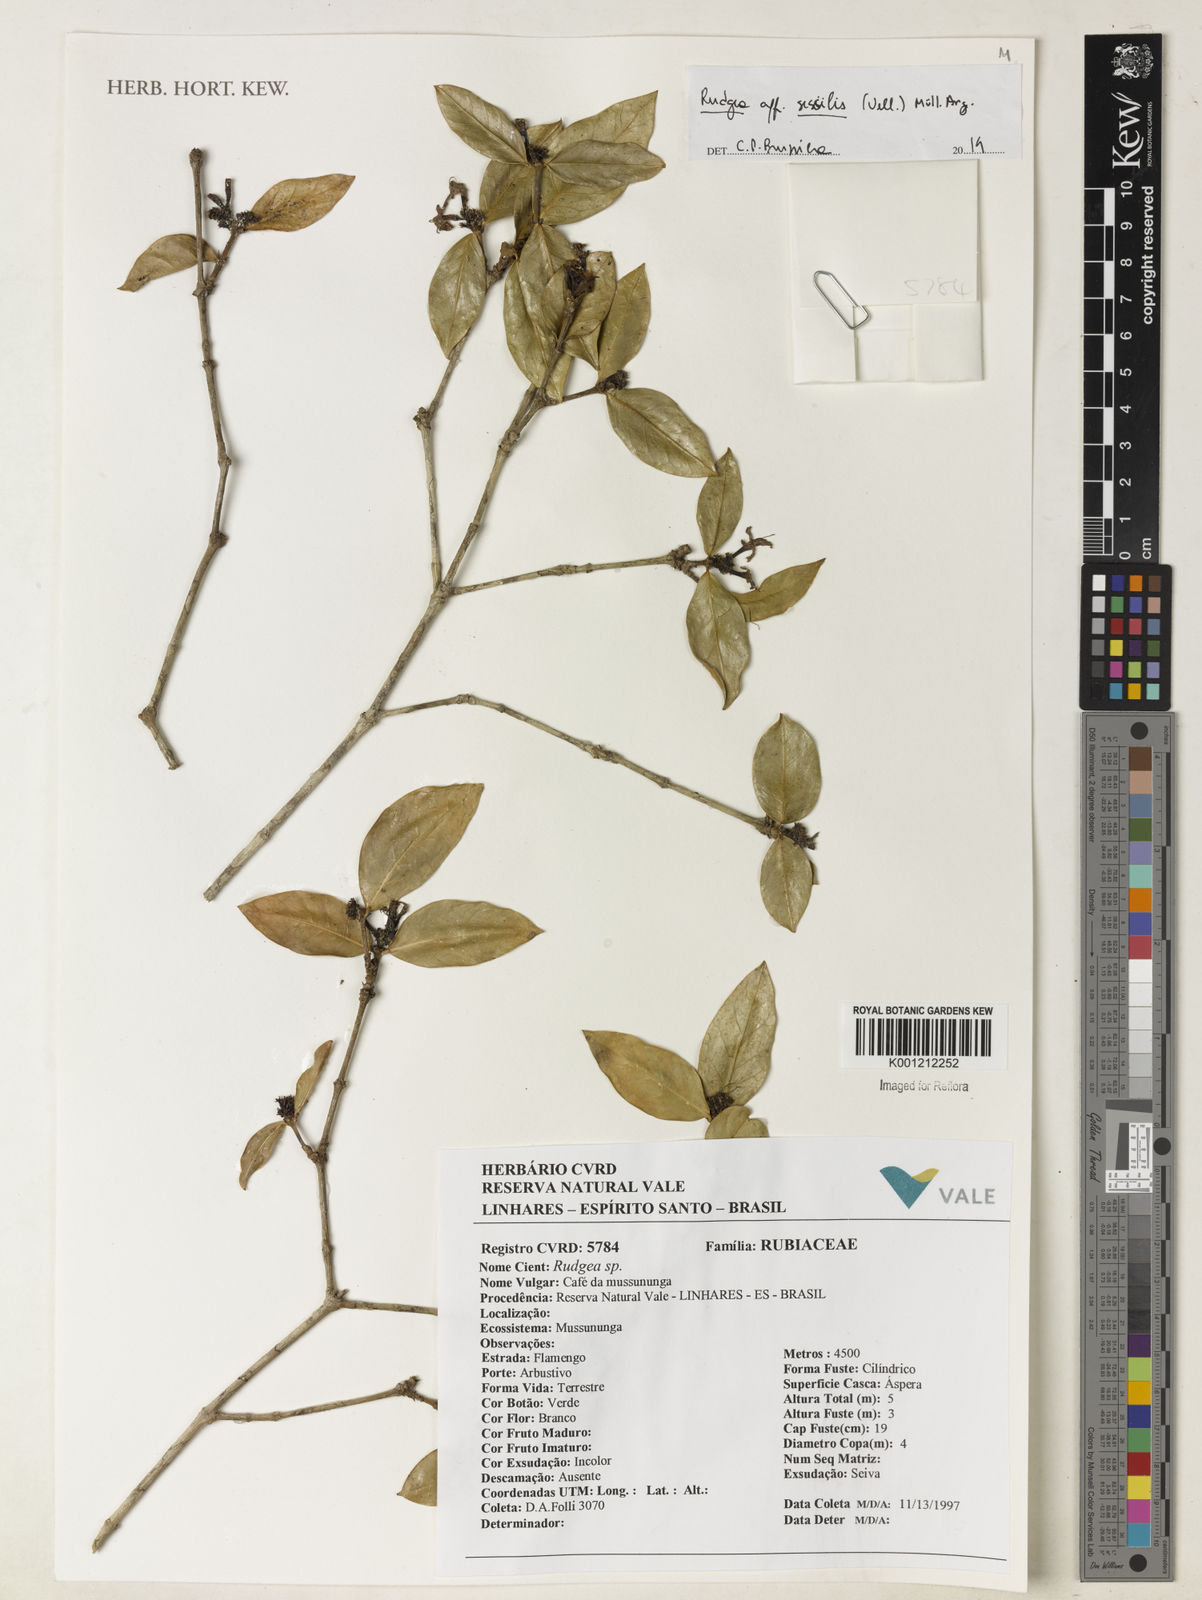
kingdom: Plantae
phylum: Tracheophyta
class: Magnoliopsida
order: Gentianales
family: Rubiaceae
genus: Rudgea
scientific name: Rudgea
